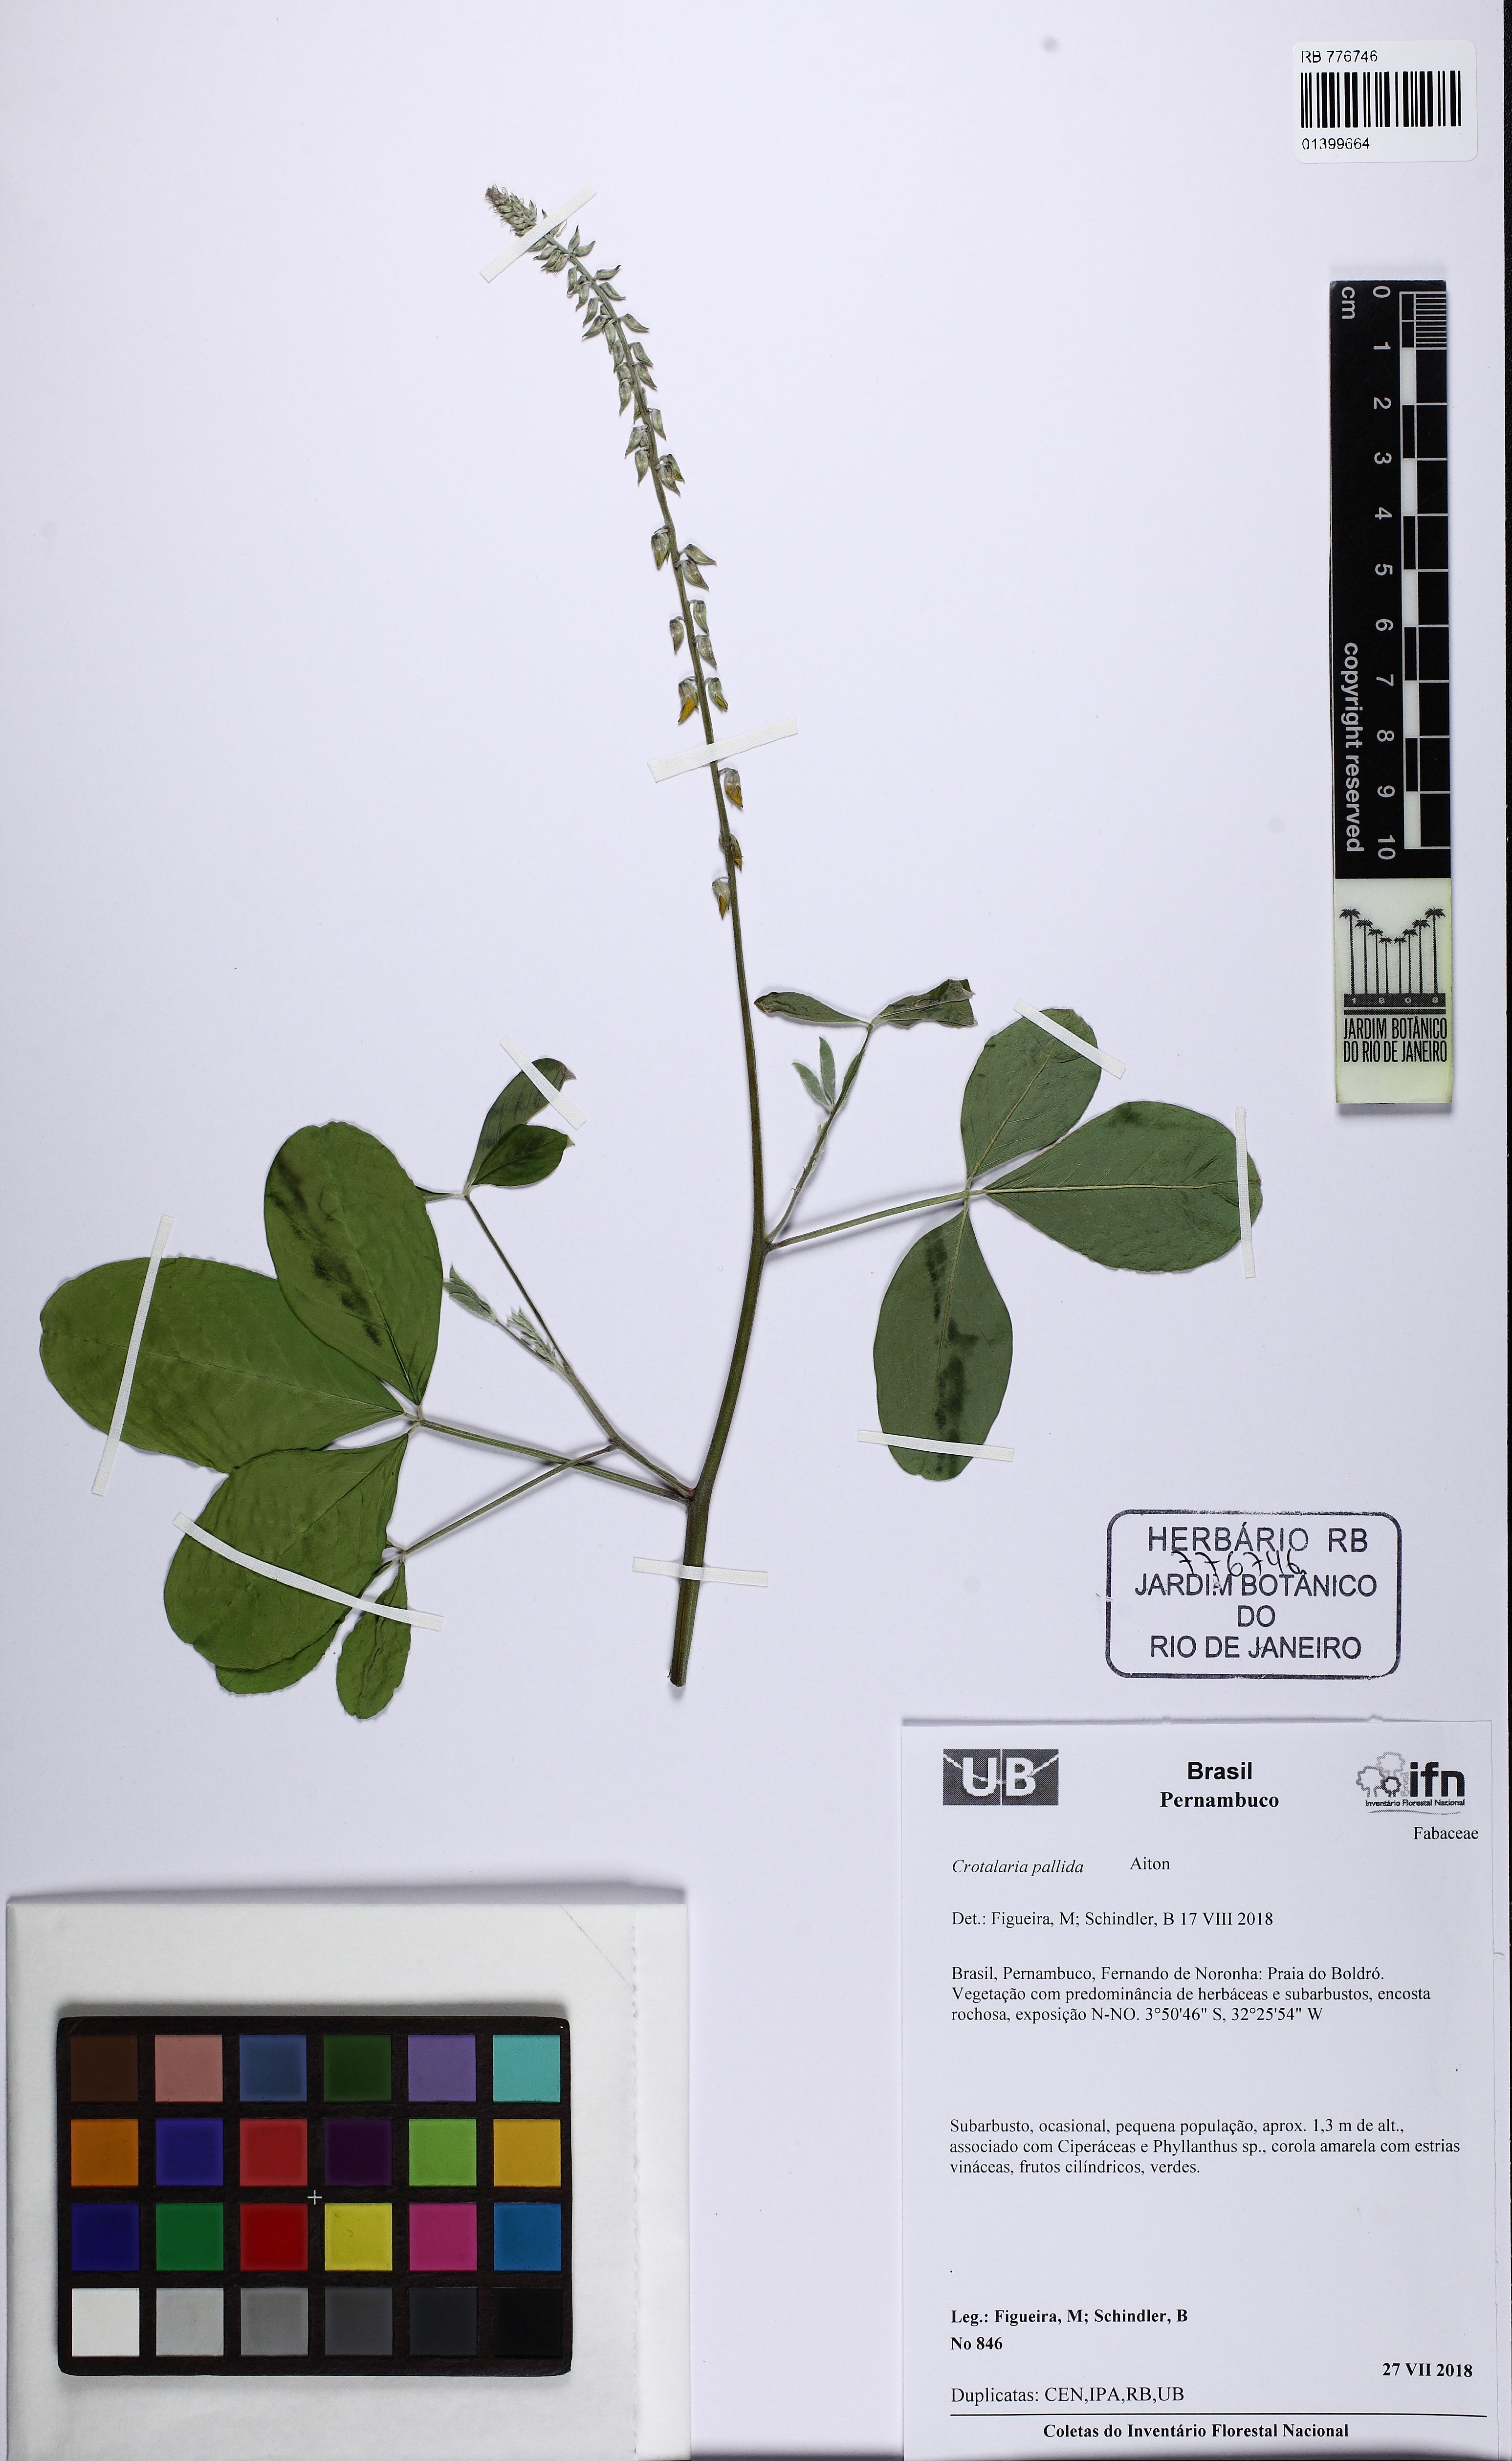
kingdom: Plantae
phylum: Tracheophyta
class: Magnoliopsida
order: Fabales
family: Fabaceae
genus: Crotalaria
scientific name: Crotalaria pallida
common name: Smooth rattlebox
